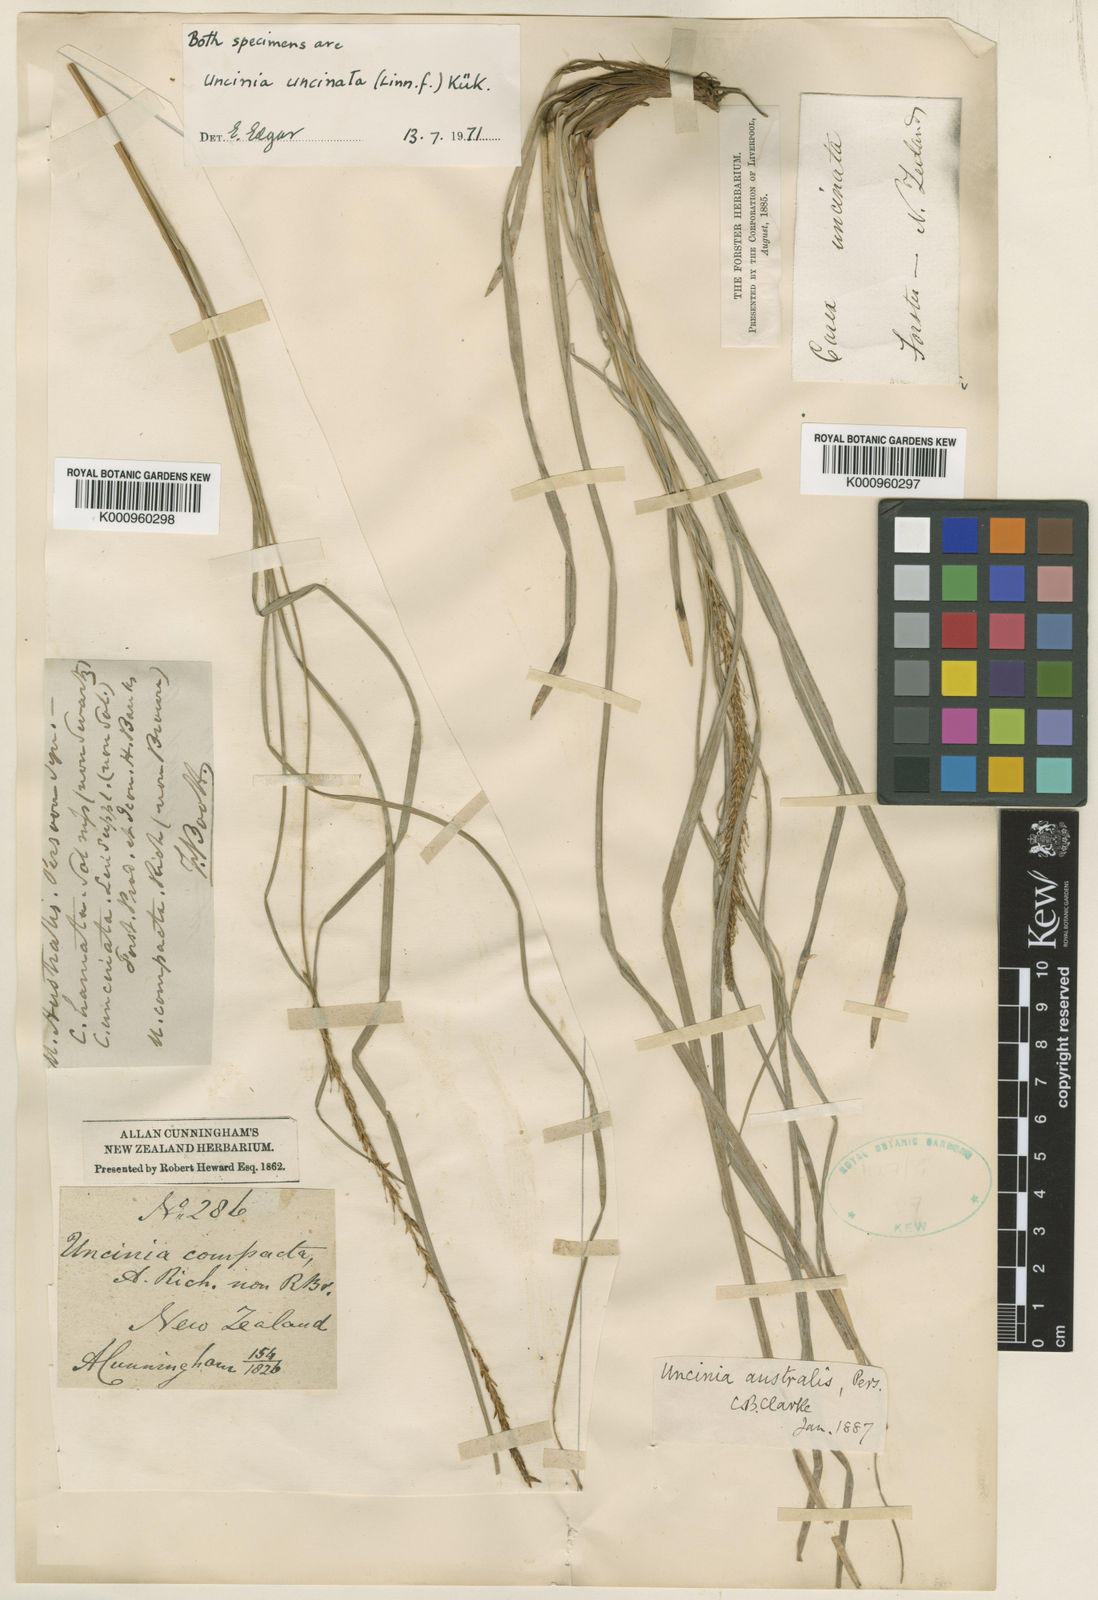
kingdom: Fungi
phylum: Ascomycota
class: Leotiomycetes
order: Helotiales
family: Hamatocanthoscyphaceae
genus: Uncinia
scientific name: Uncinia
